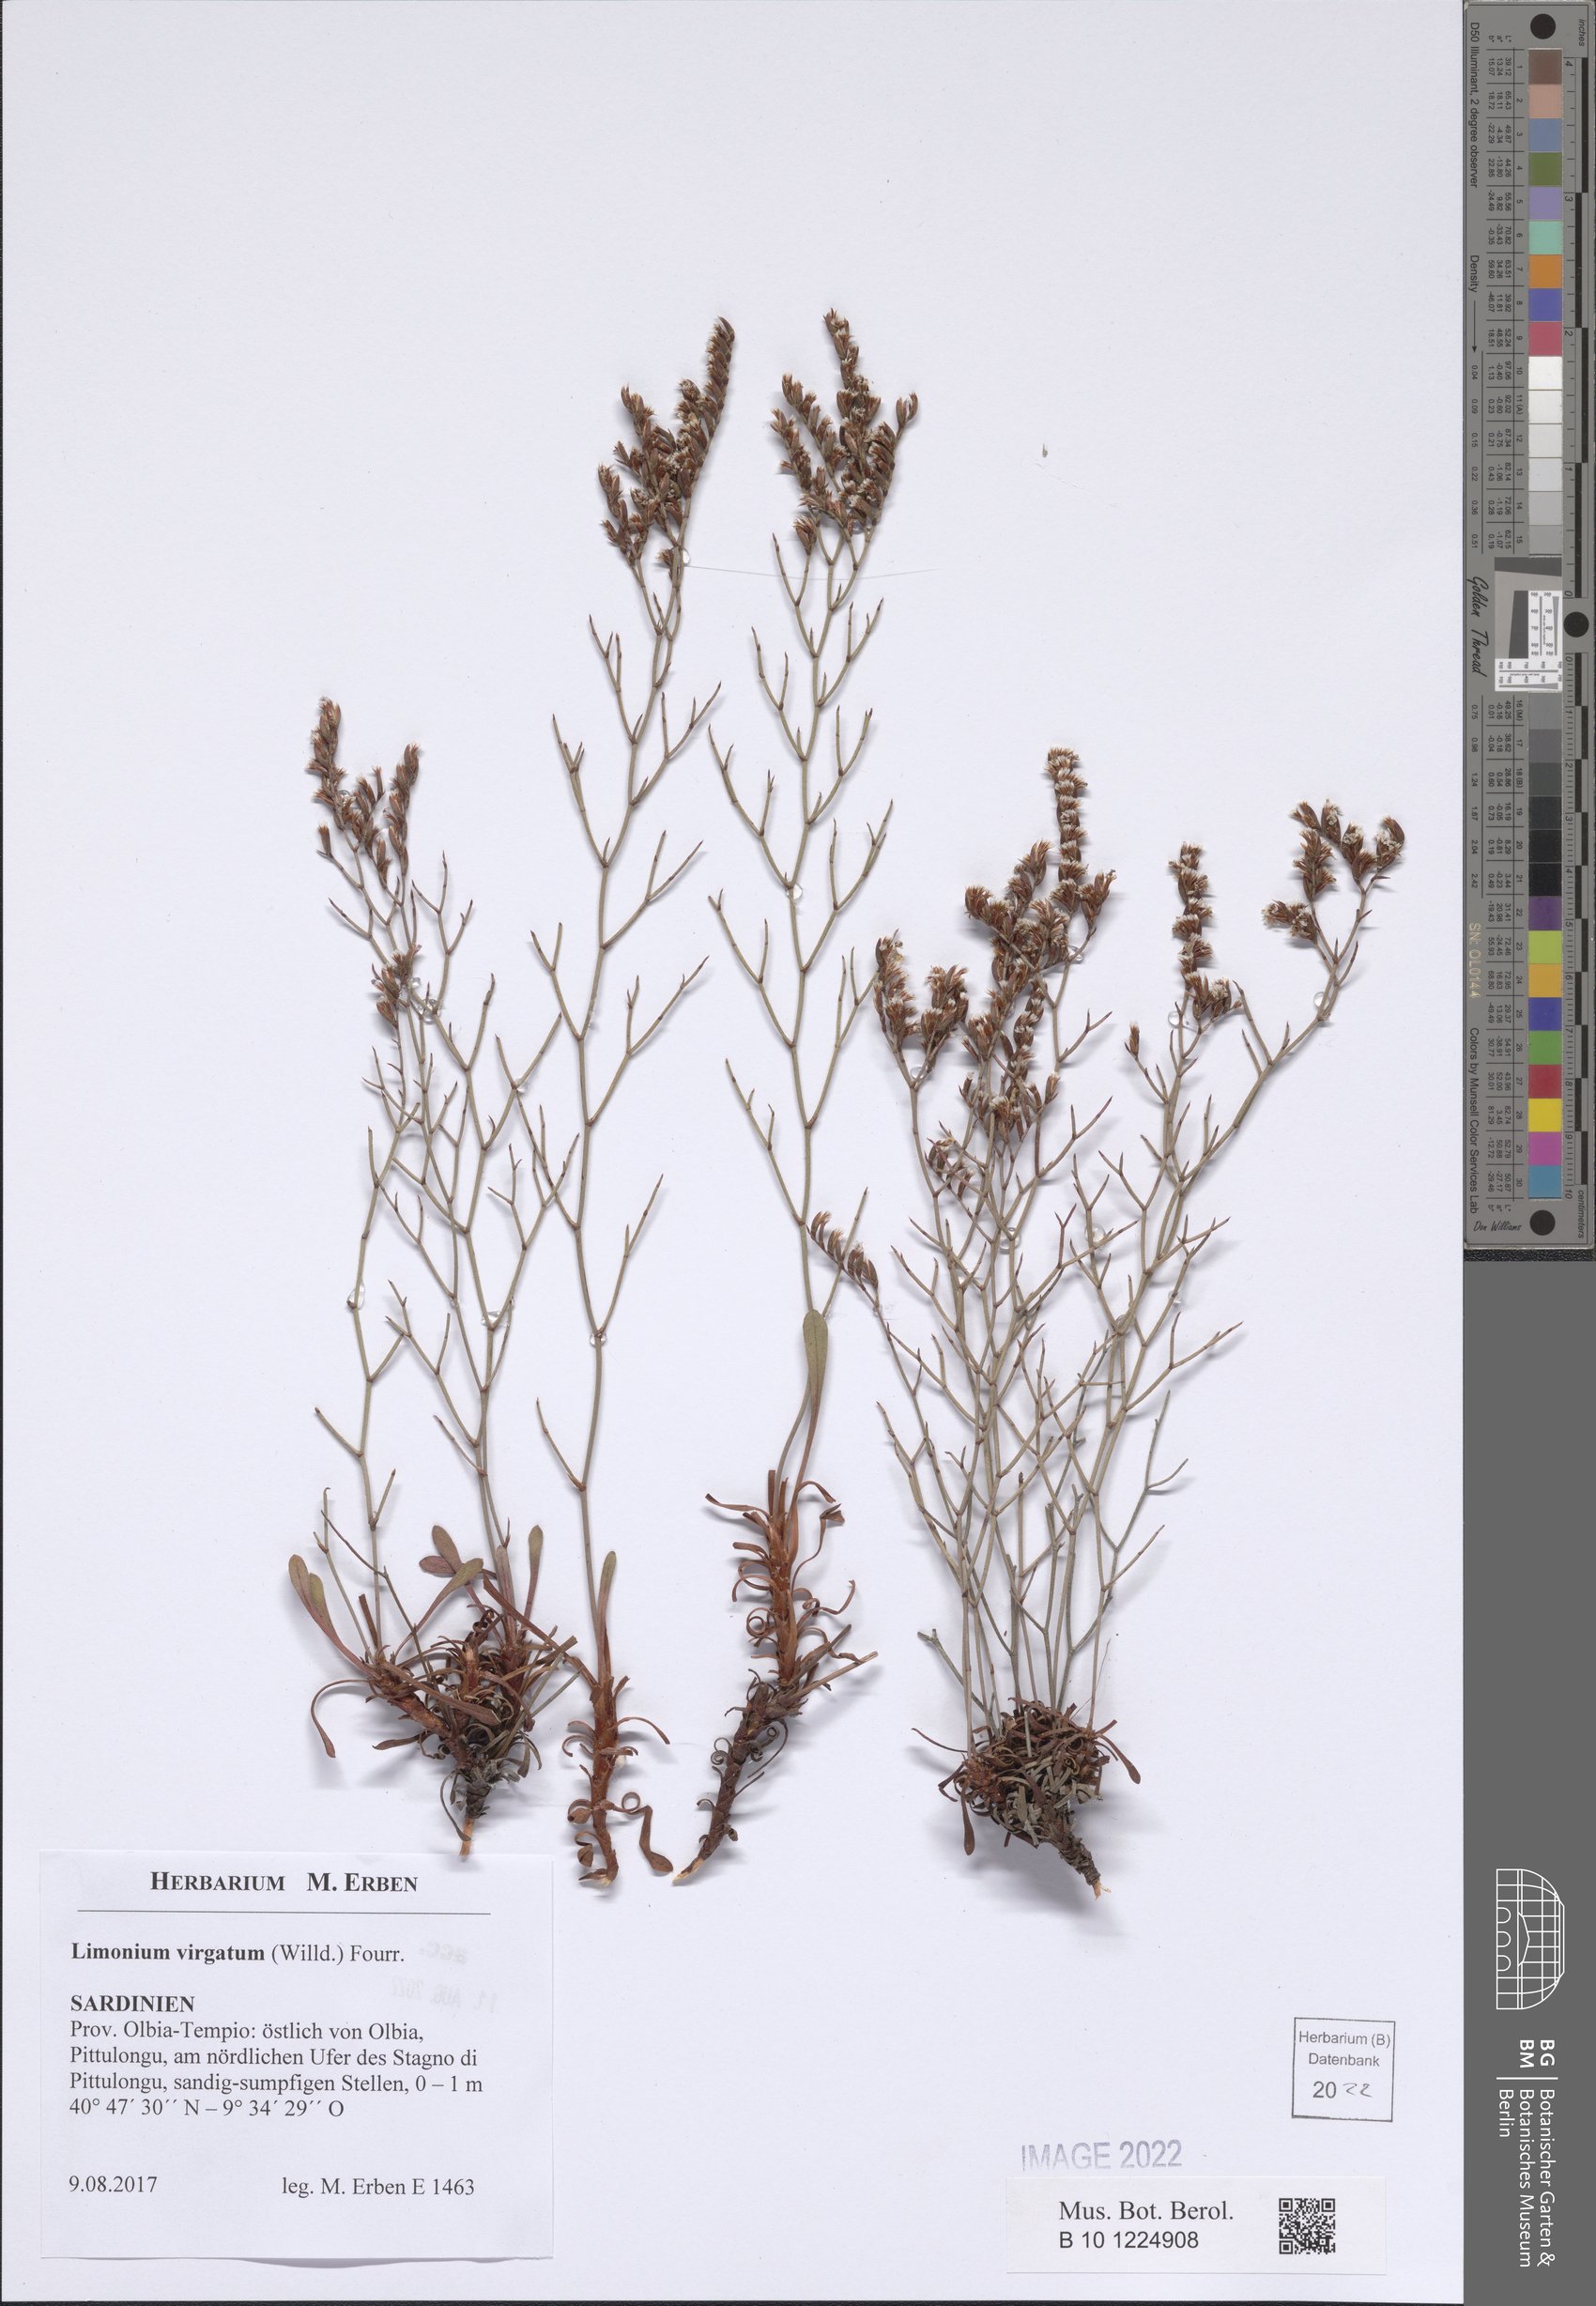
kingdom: Plantae
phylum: Tracheophyta
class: Magnoliopsida
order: Caryophyllales
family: Plumbaginaceae
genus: Limonium
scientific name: Limonium virgatum
